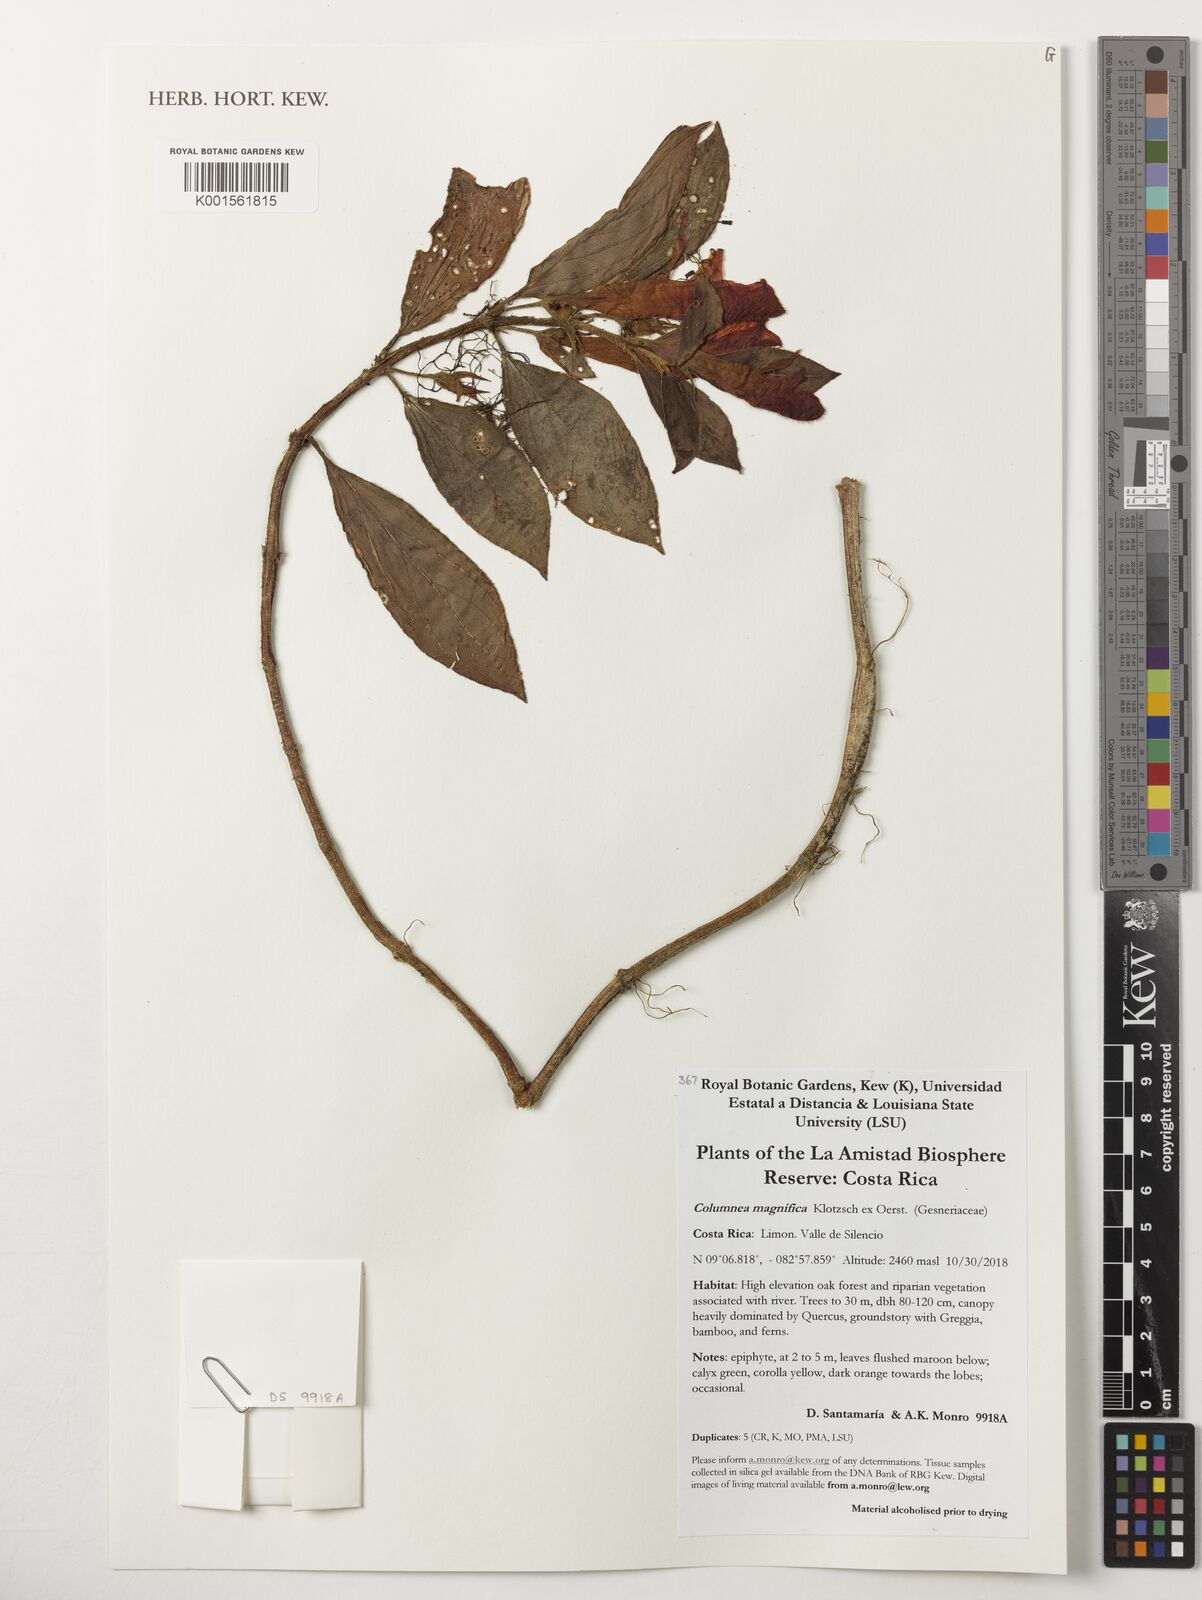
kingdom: Plantae
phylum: Tracheophyta
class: Magnoliopsida
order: Lamiales
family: Gesneriaceae
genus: Columnea
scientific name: Columnea magnifica
